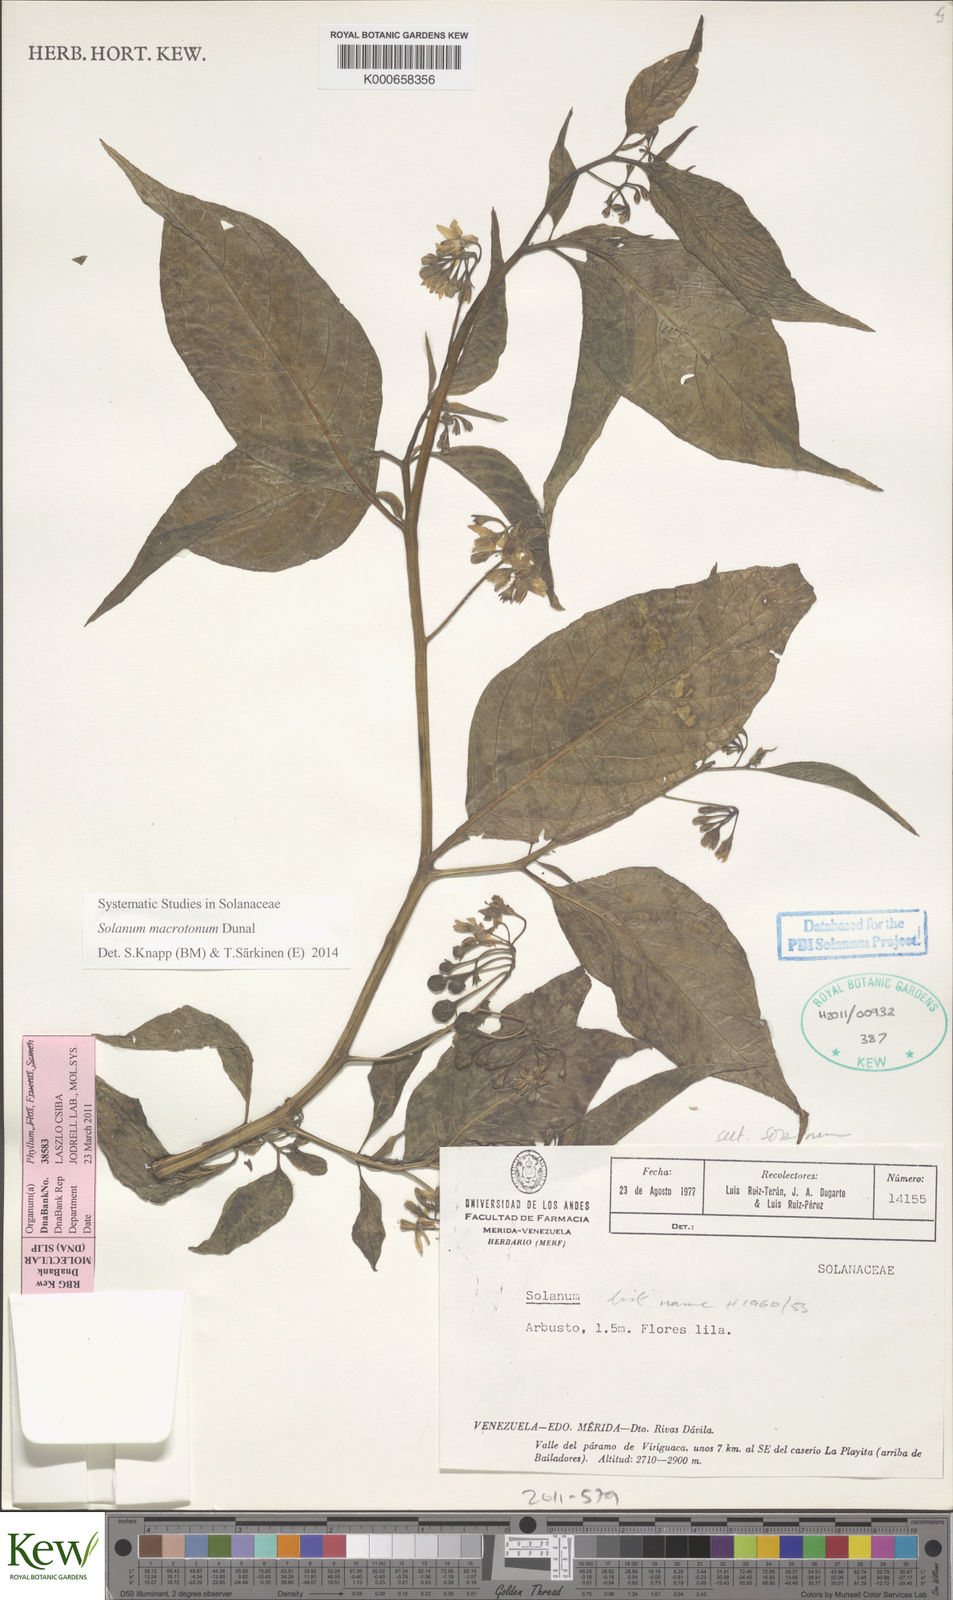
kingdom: Plantae
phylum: Tracheophyta
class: Magnoliopsida
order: Solanales
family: Solanaceae
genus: Solanum
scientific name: Solanum polytrichostylum
